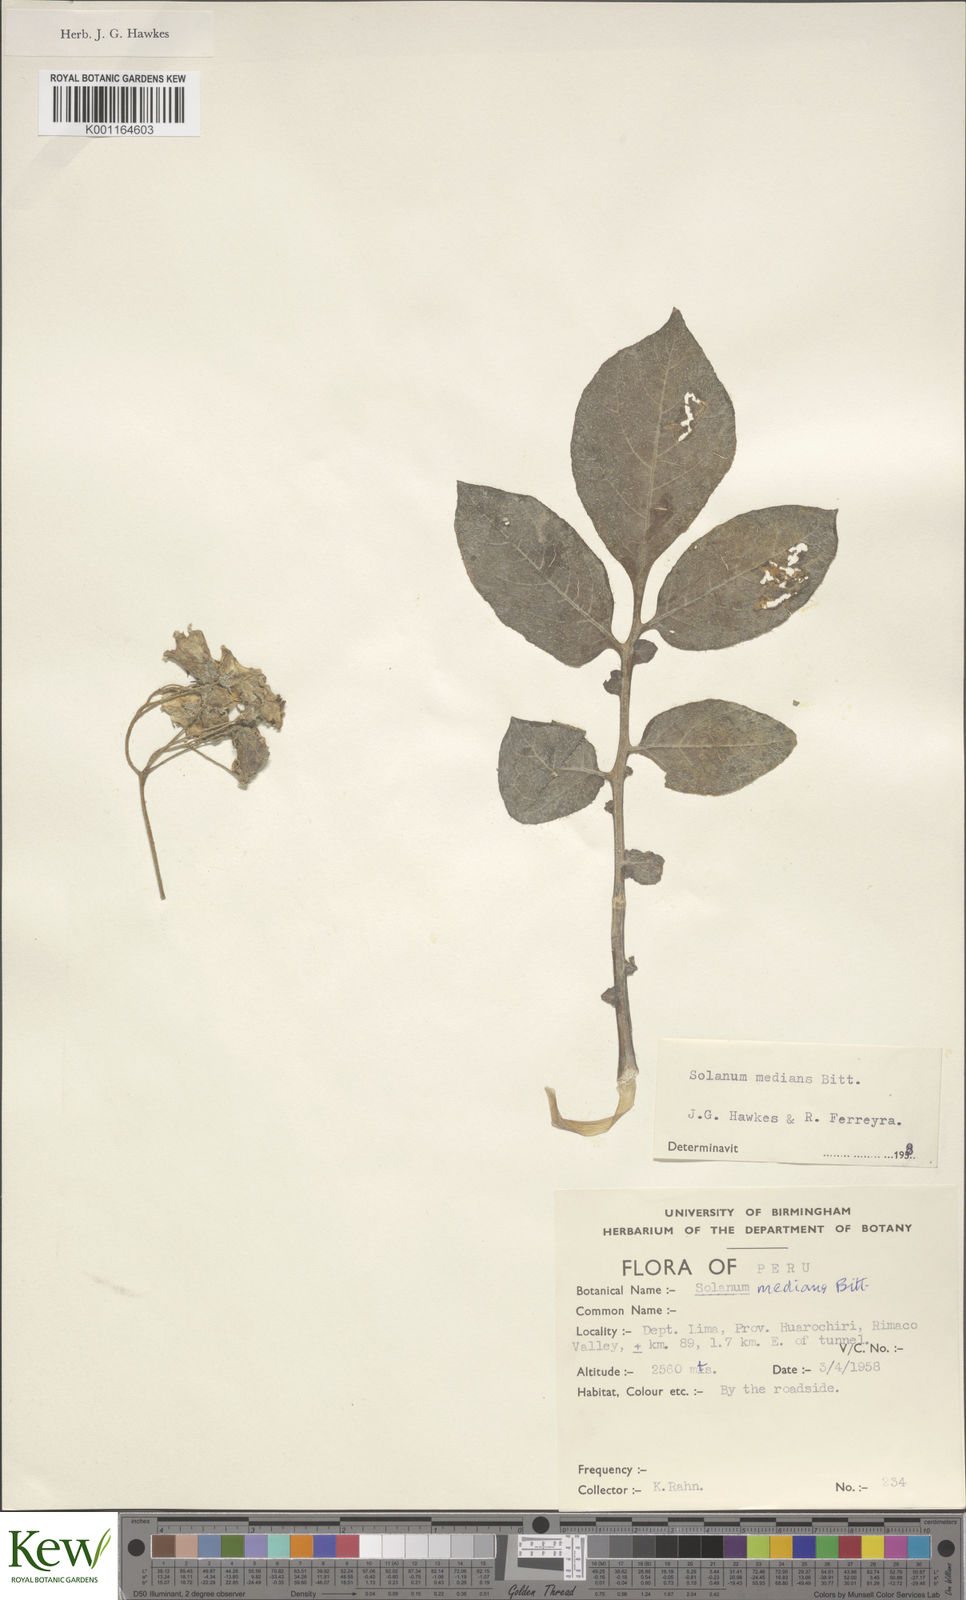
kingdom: Plantae
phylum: Tracheophyta
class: Magnoliopsida
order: Solanales
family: Solanaceae
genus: Solanum
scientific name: Solanum medians
